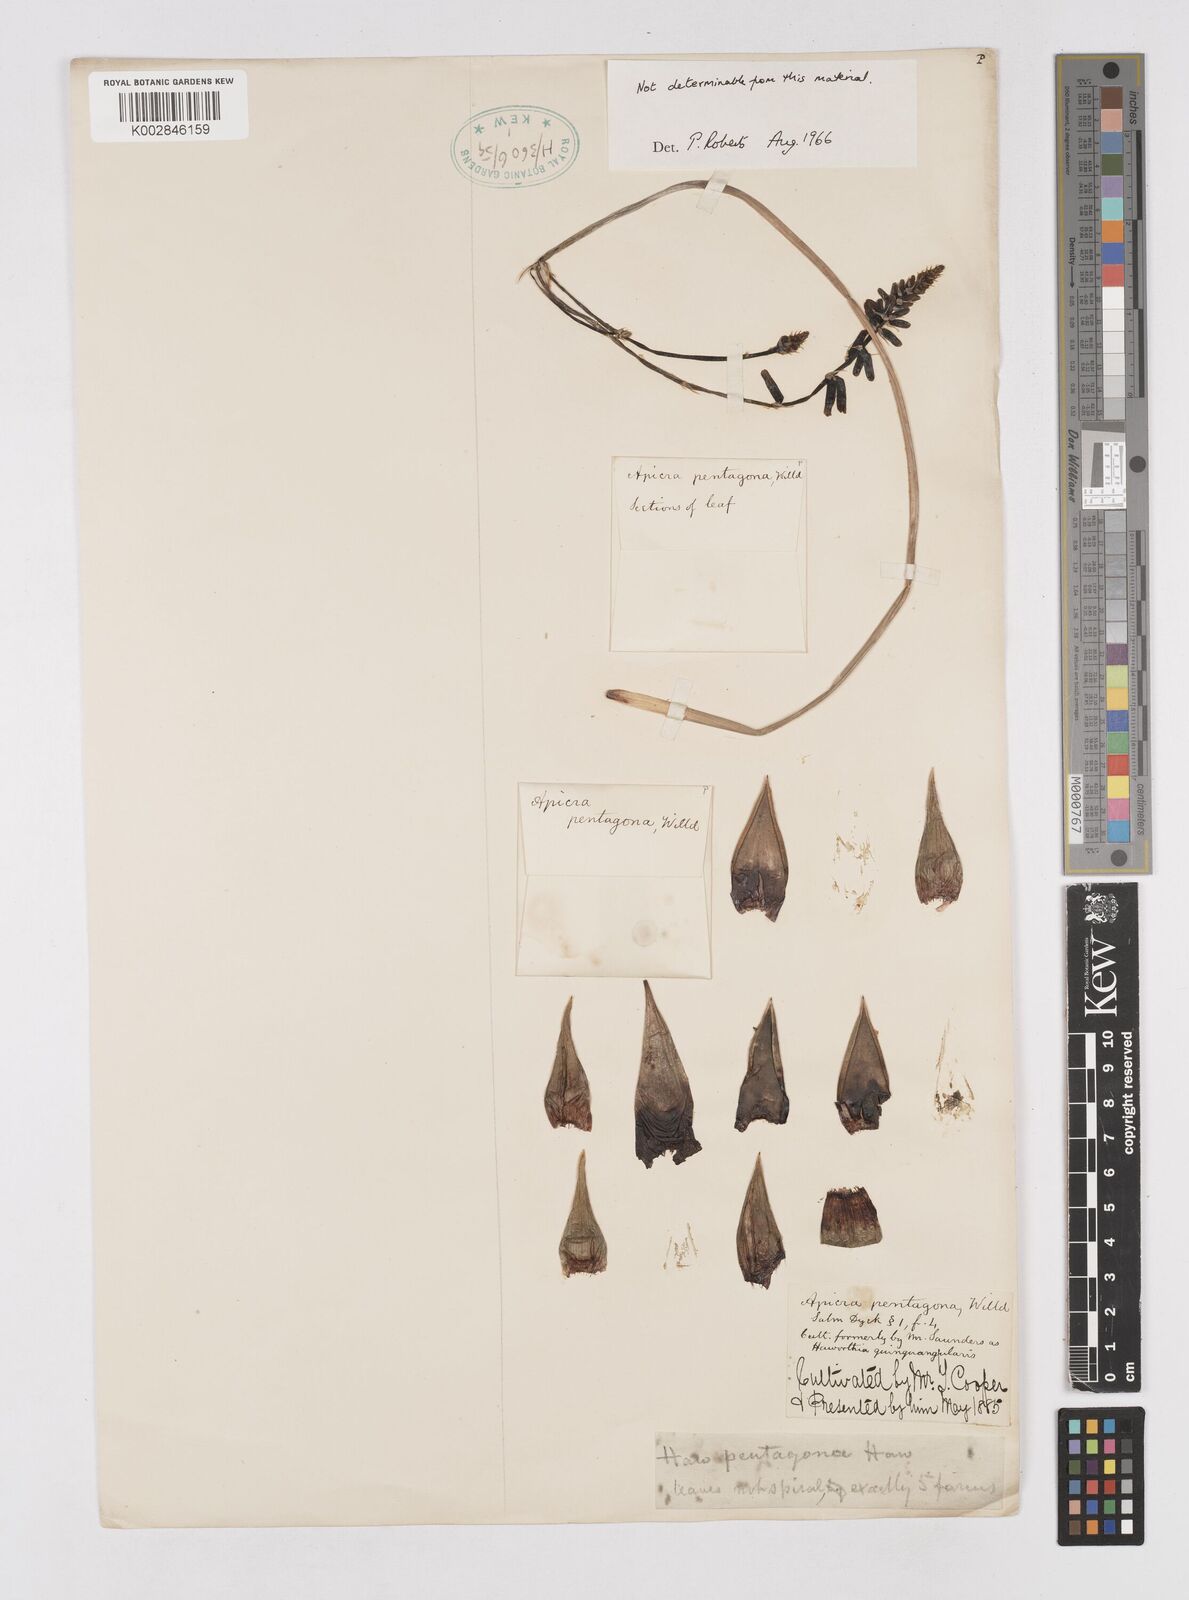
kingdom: Plantae
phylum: Tracheophyta
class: Liliopsida
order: Asparagales
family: Asphodelaceae
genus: Astroloba
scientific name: Astroloba pentagona
